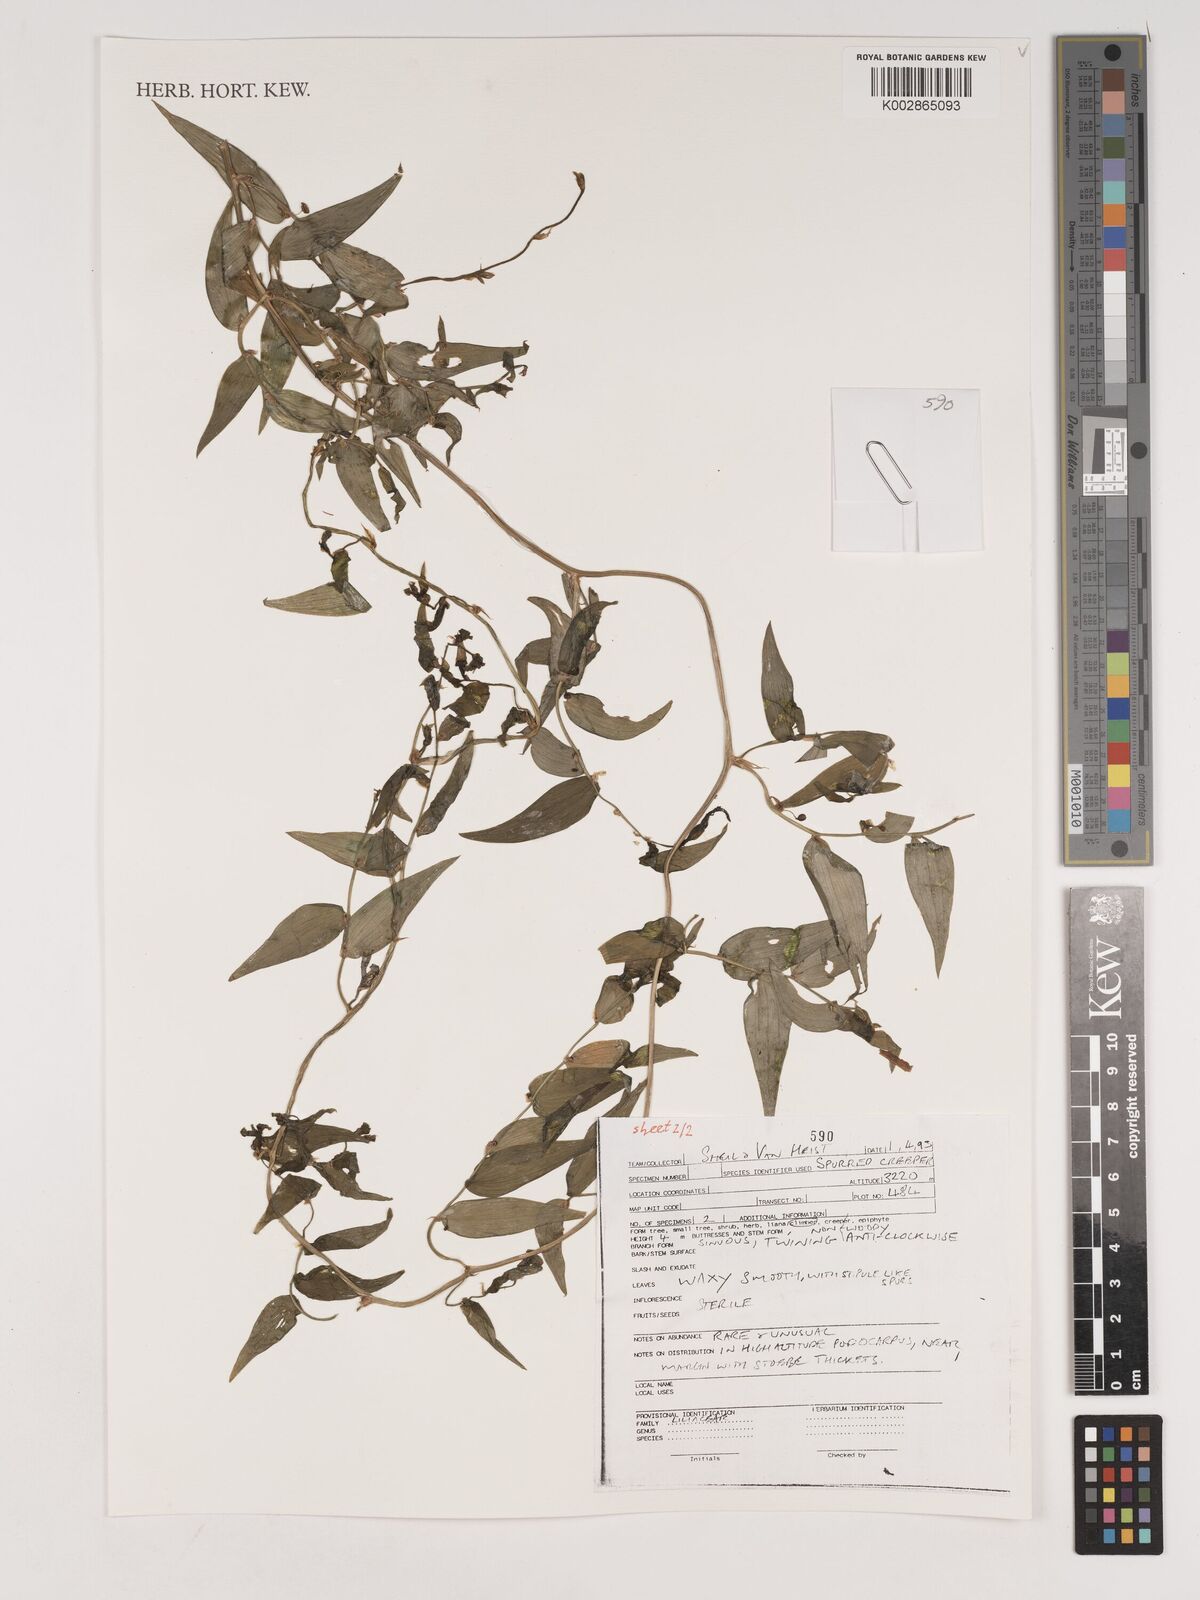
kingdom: Plantae
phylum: Tracheophyta
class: Liliopsida
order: Asparagales
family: Asparagaceae
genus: Asparagus
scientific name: Asparagus asparagoides
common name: African asparagus fern
